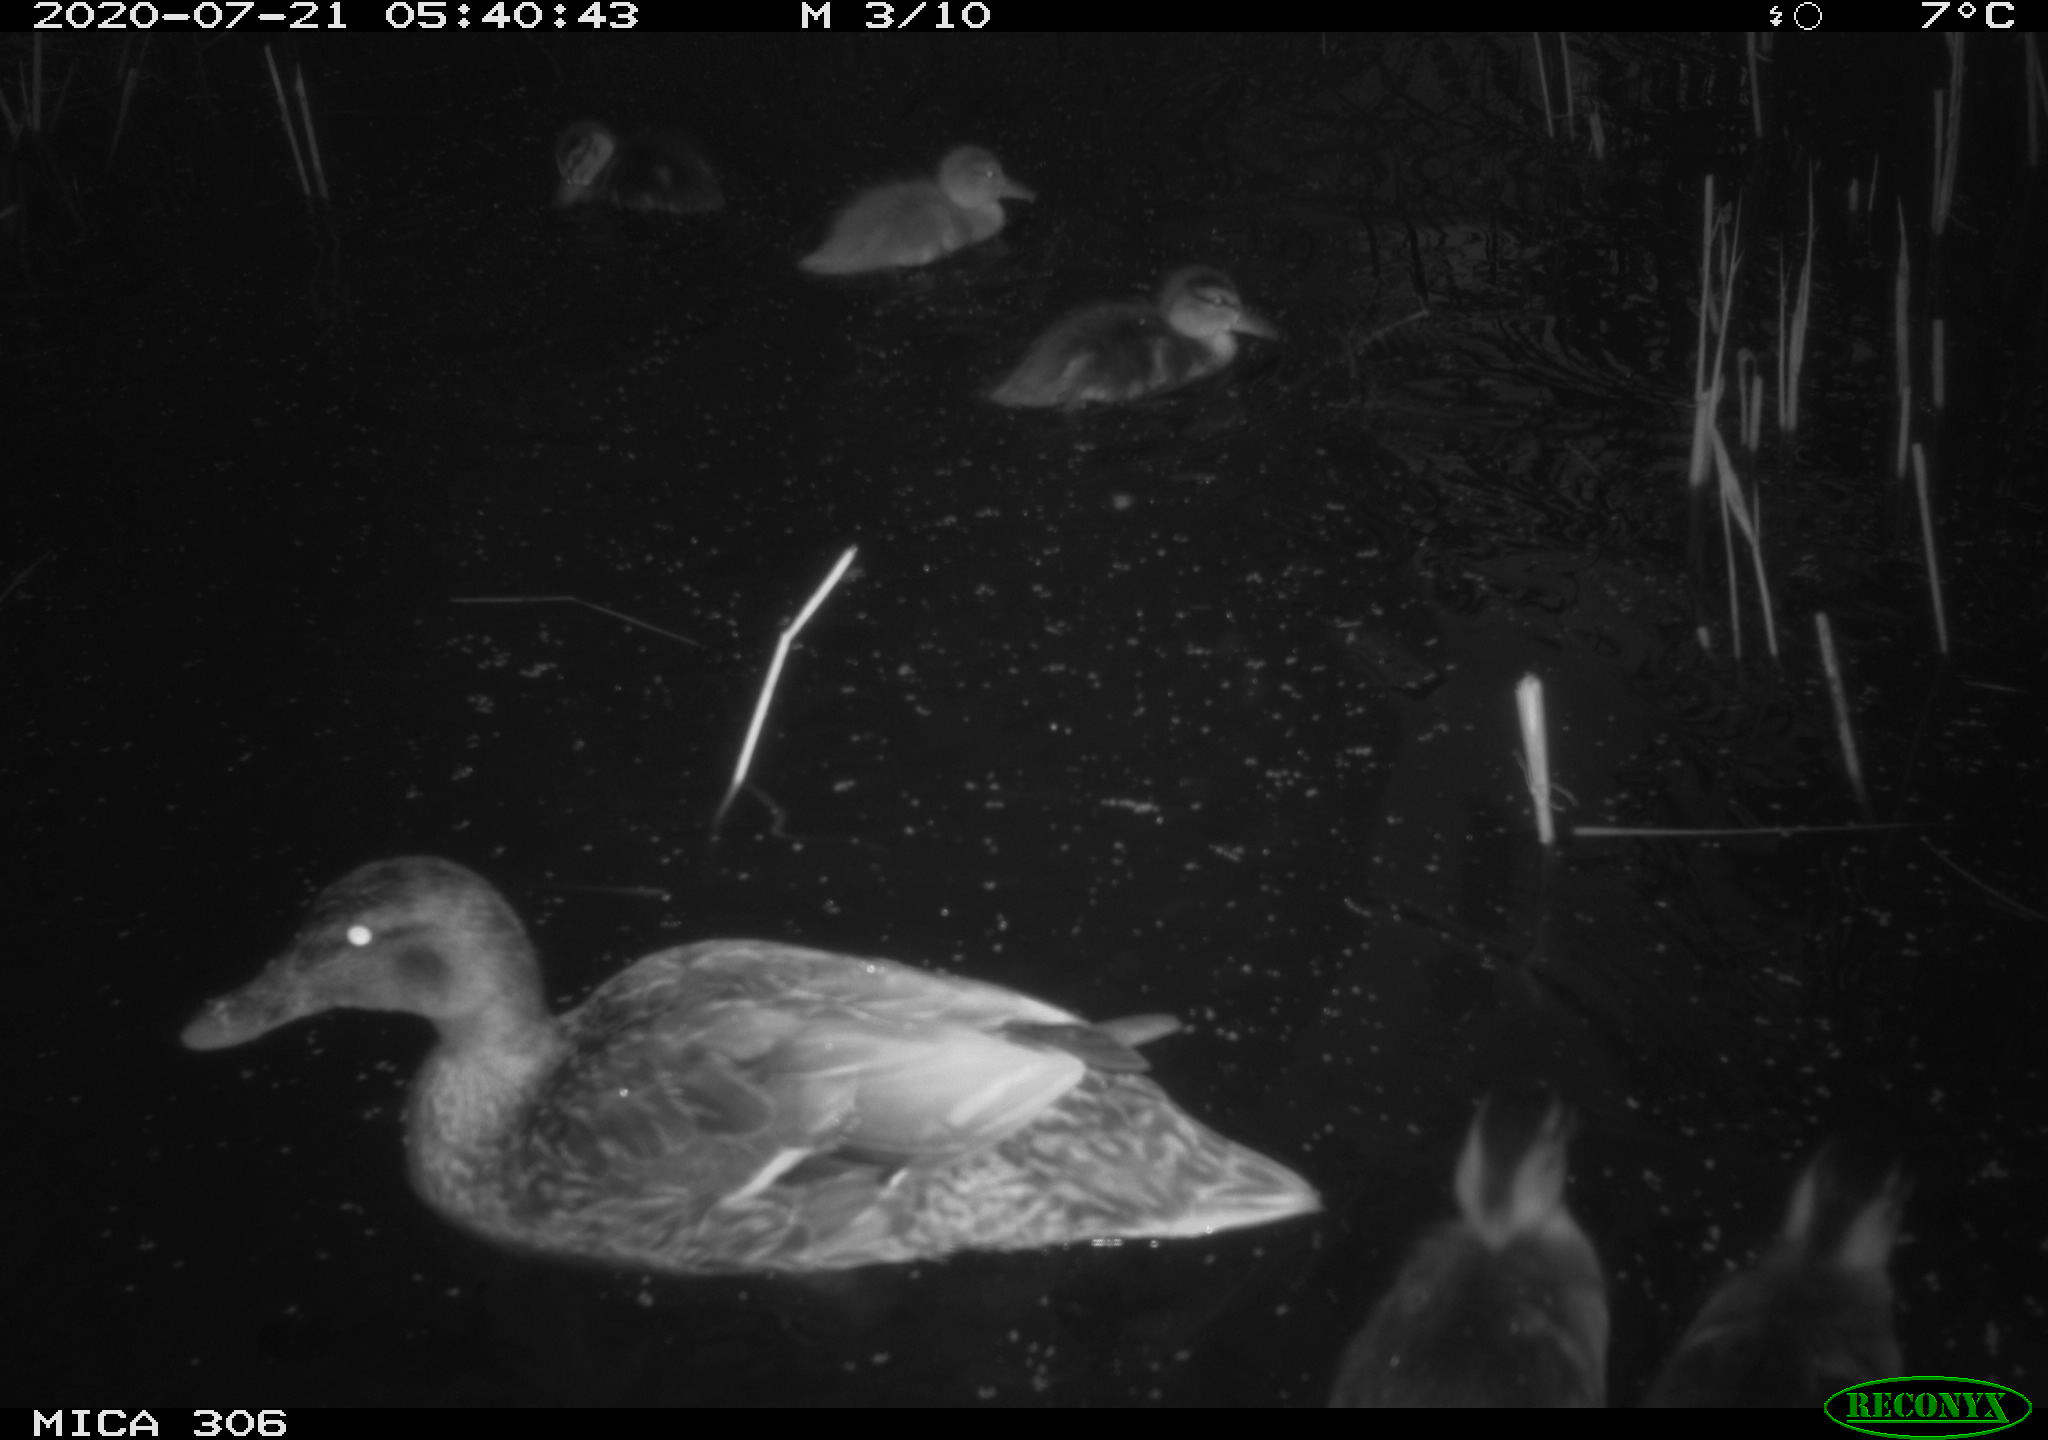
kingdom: Animalia
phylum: Chordata
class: Aves
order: Anseriformes
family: Anatidae
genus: Anas
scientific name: Anas platyrhynchos
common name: Mallard
